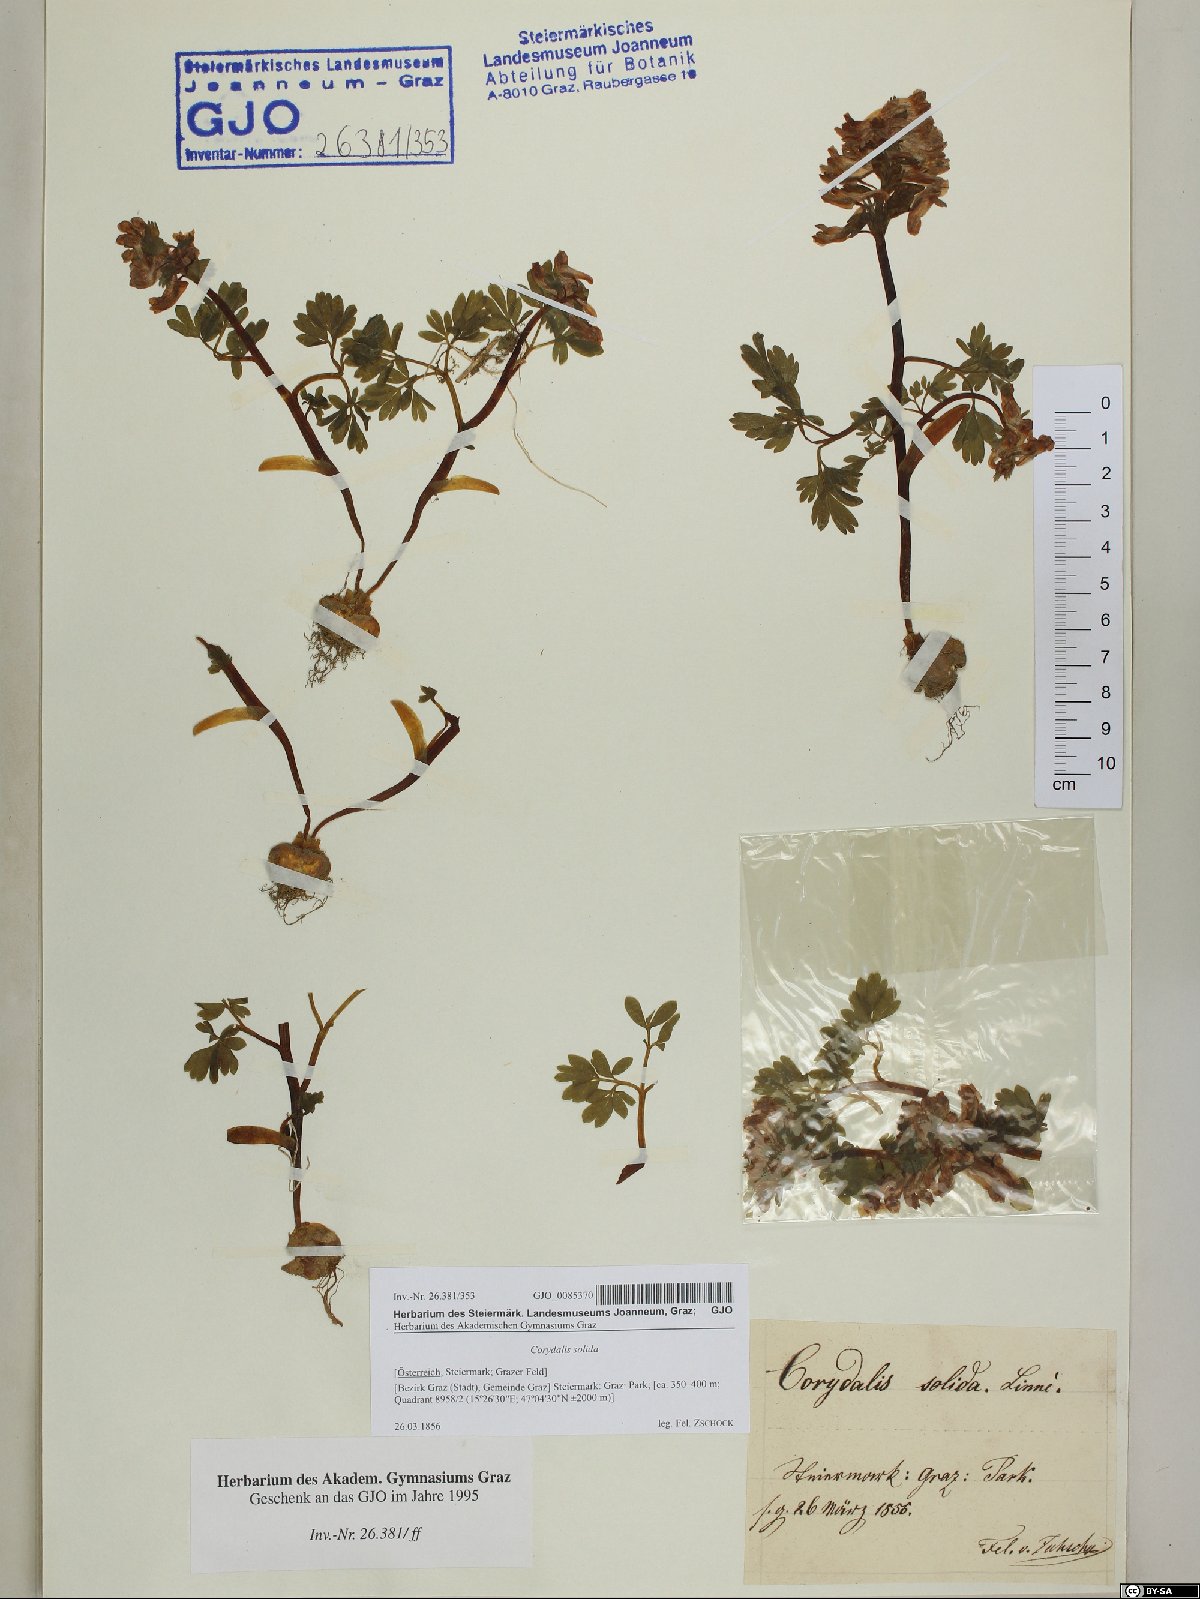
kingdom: Plantae
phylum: Tracheophyta
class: Magnoliopsida
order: Ranunculales
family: Papaveraceae
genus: Corydalis
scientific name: Corydalis solida
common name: Bird-in-a-bush
